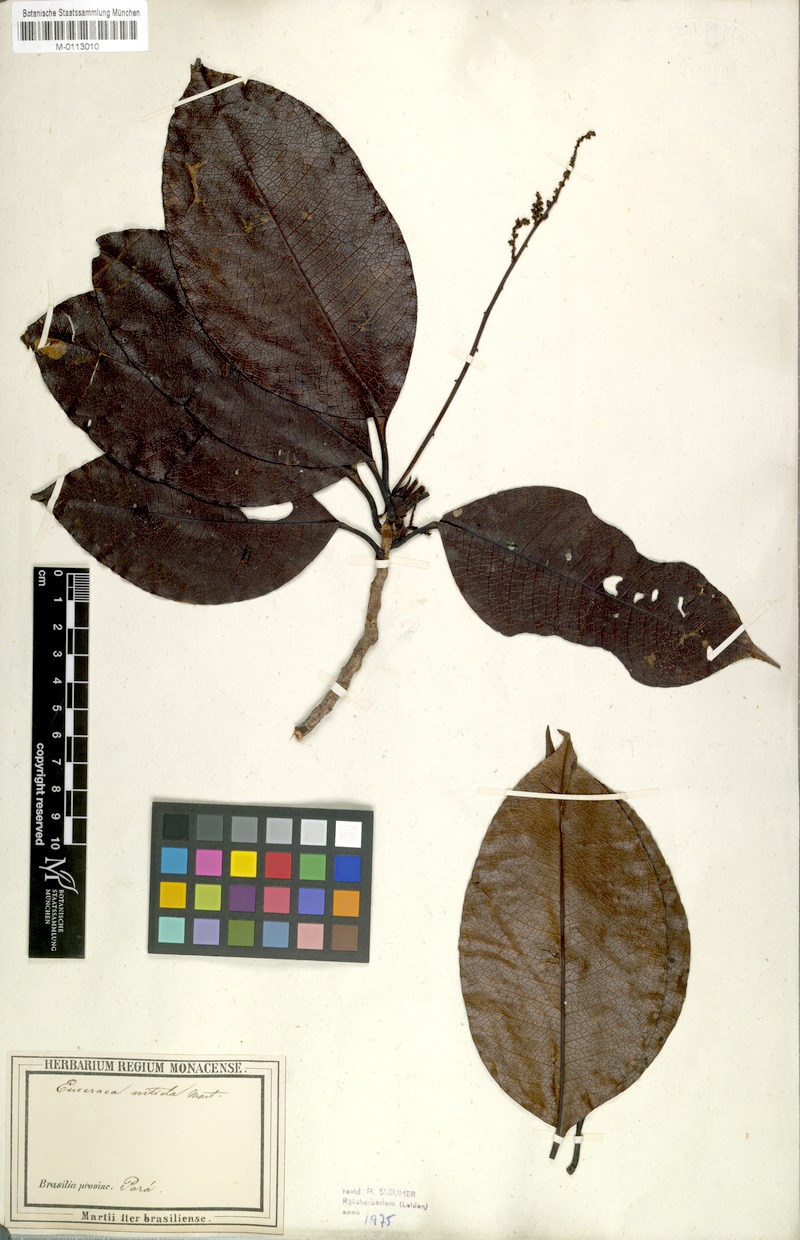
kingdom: Plantae
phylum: Tracheophyta
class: Magnoliopsida
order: Malpighiales
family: Salicaceae
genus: Casearia
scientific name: Casearia euceraea
